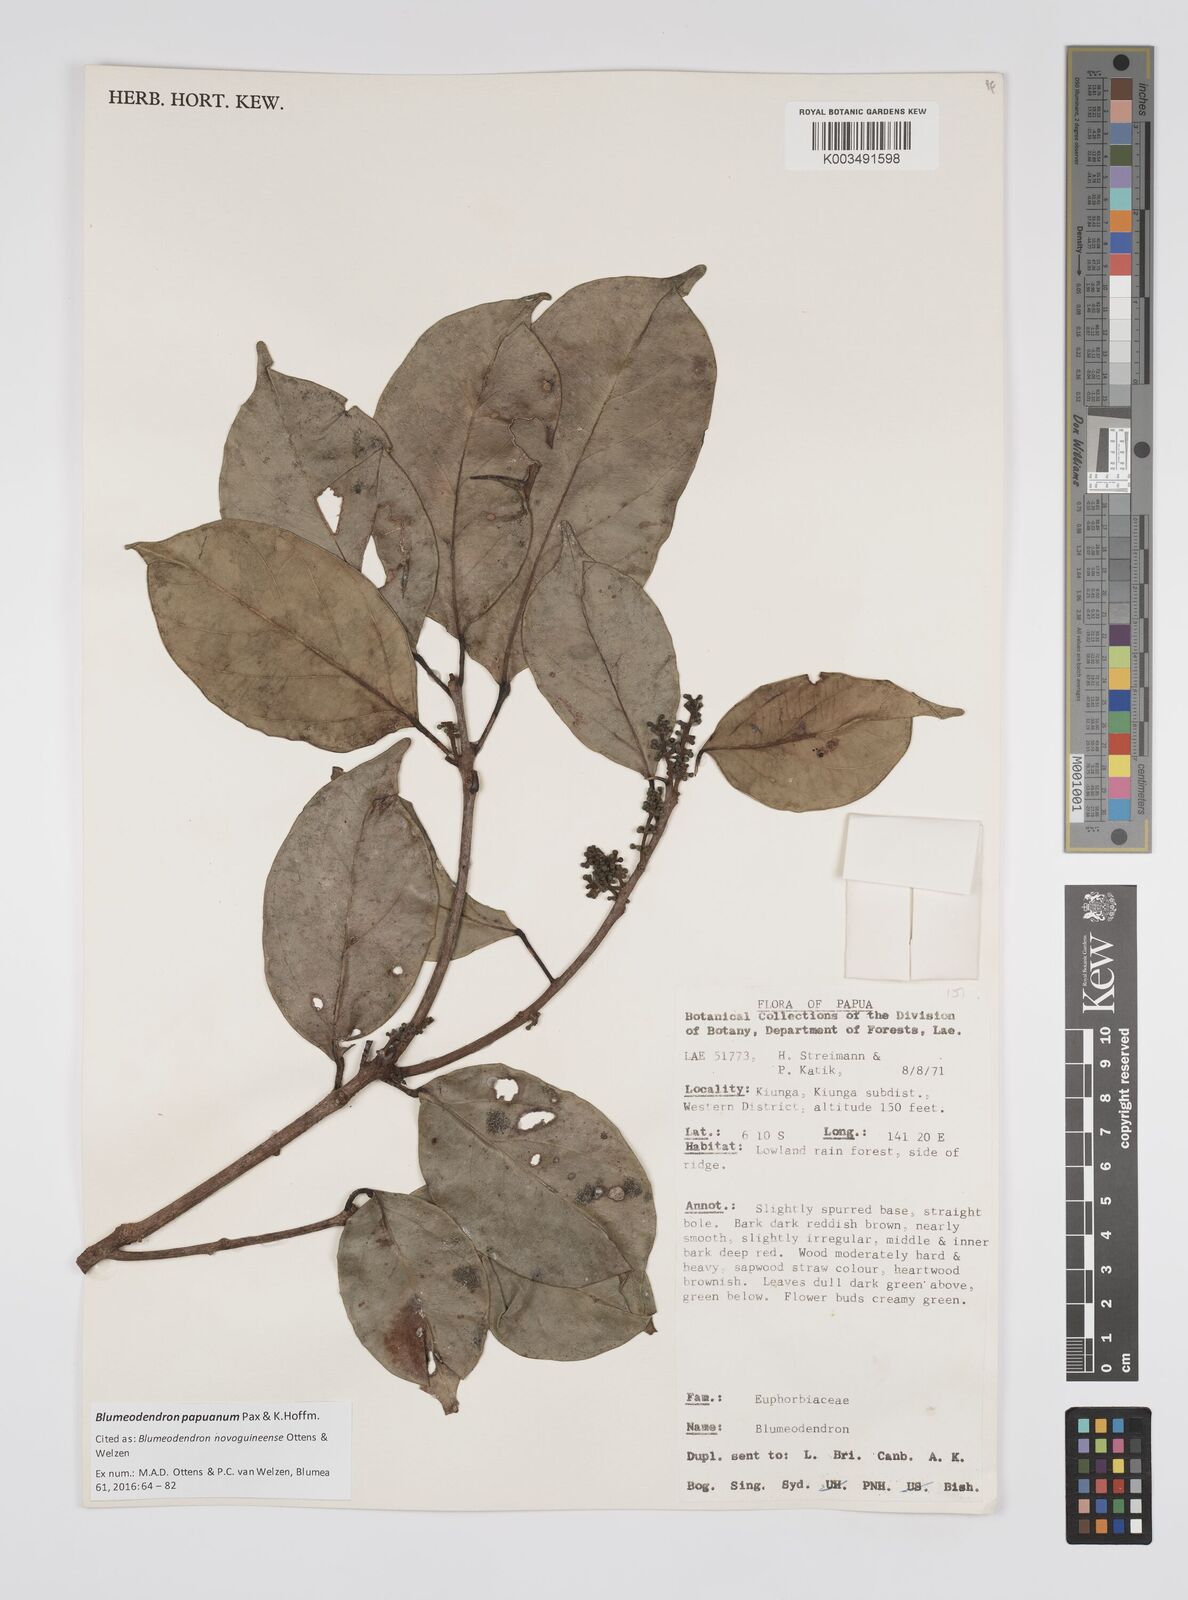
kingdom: Plantae
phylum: Tracheophyta
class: Magnoliopsida
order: Malpighiales
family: Euphorbiaceae
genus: Blumeodendron
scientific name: Blumeodendron papuanum
